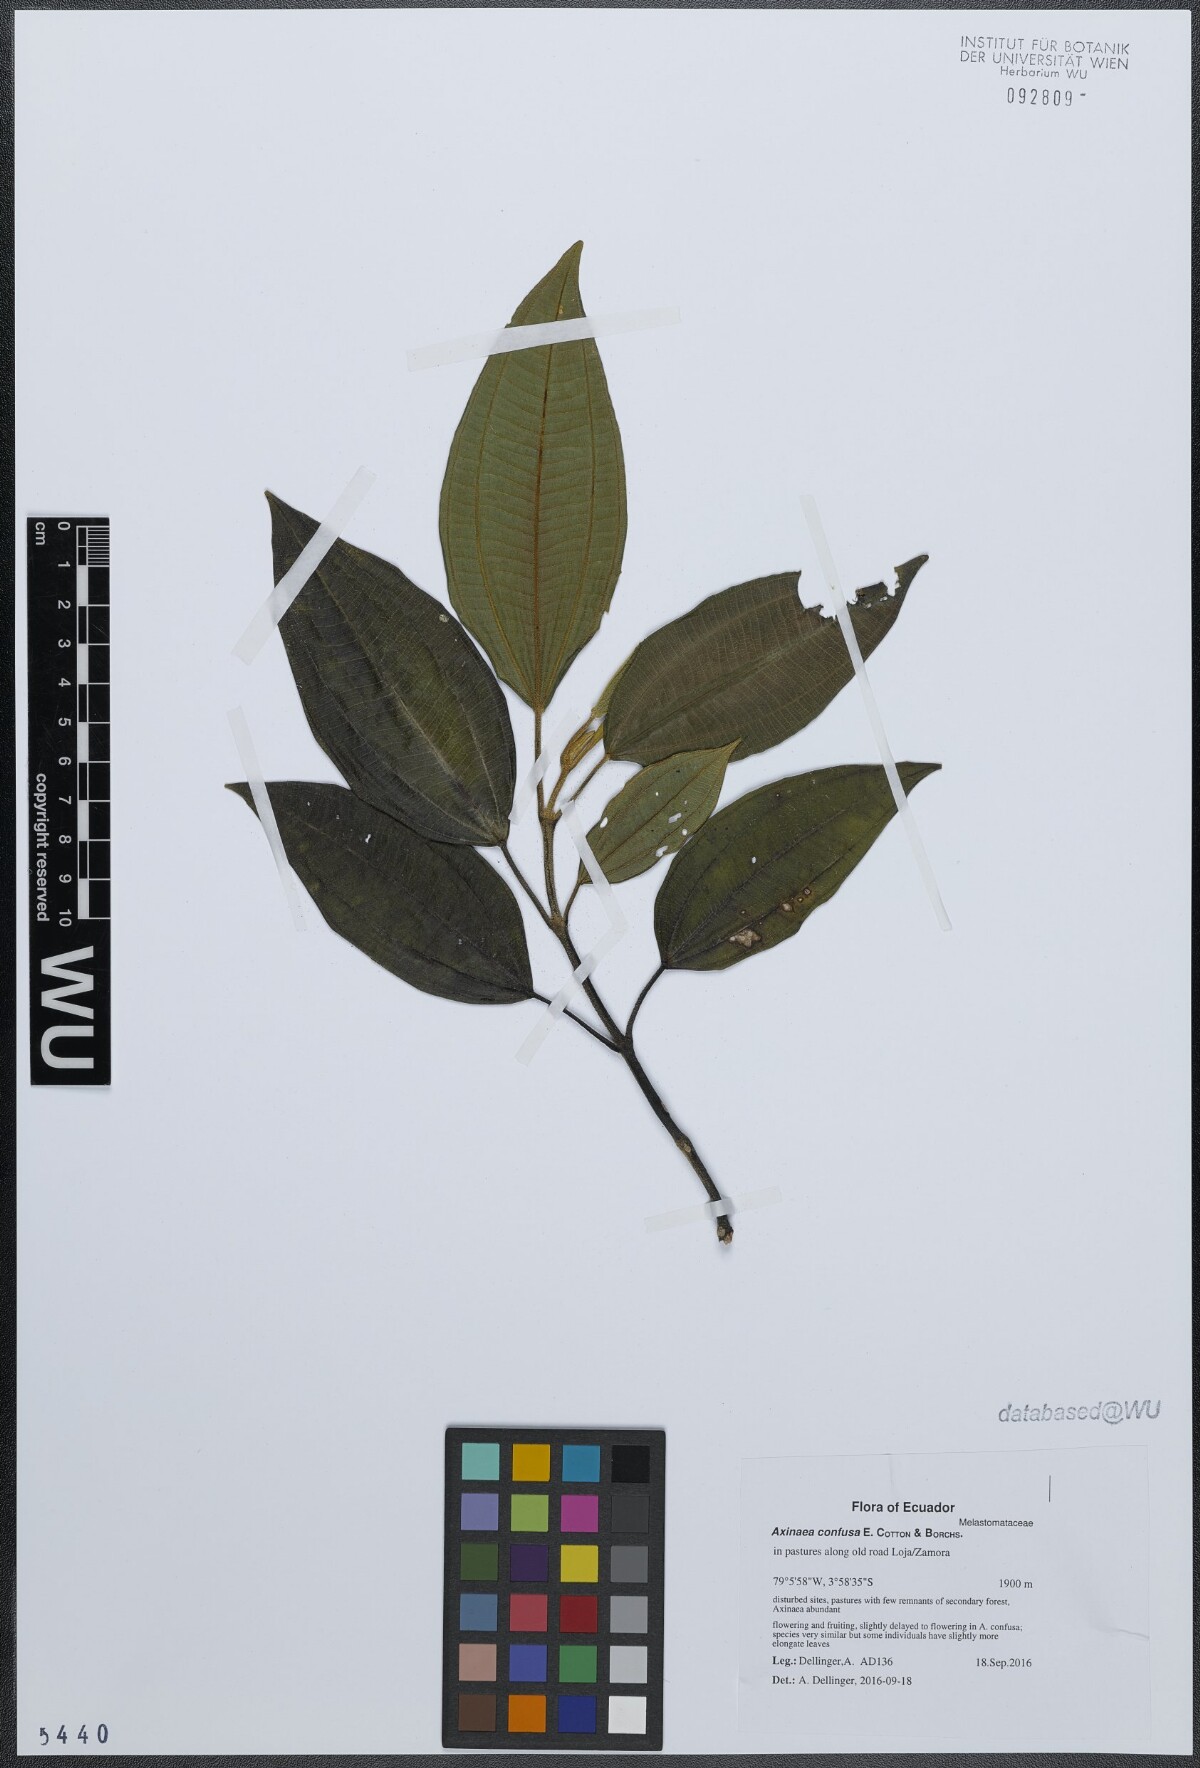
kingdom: Plantae
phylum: Tracheophyta
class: Magnoliopsida
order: Myrtales
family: Melastomataceae
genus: Axinaea
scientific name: Axinaea confusa
